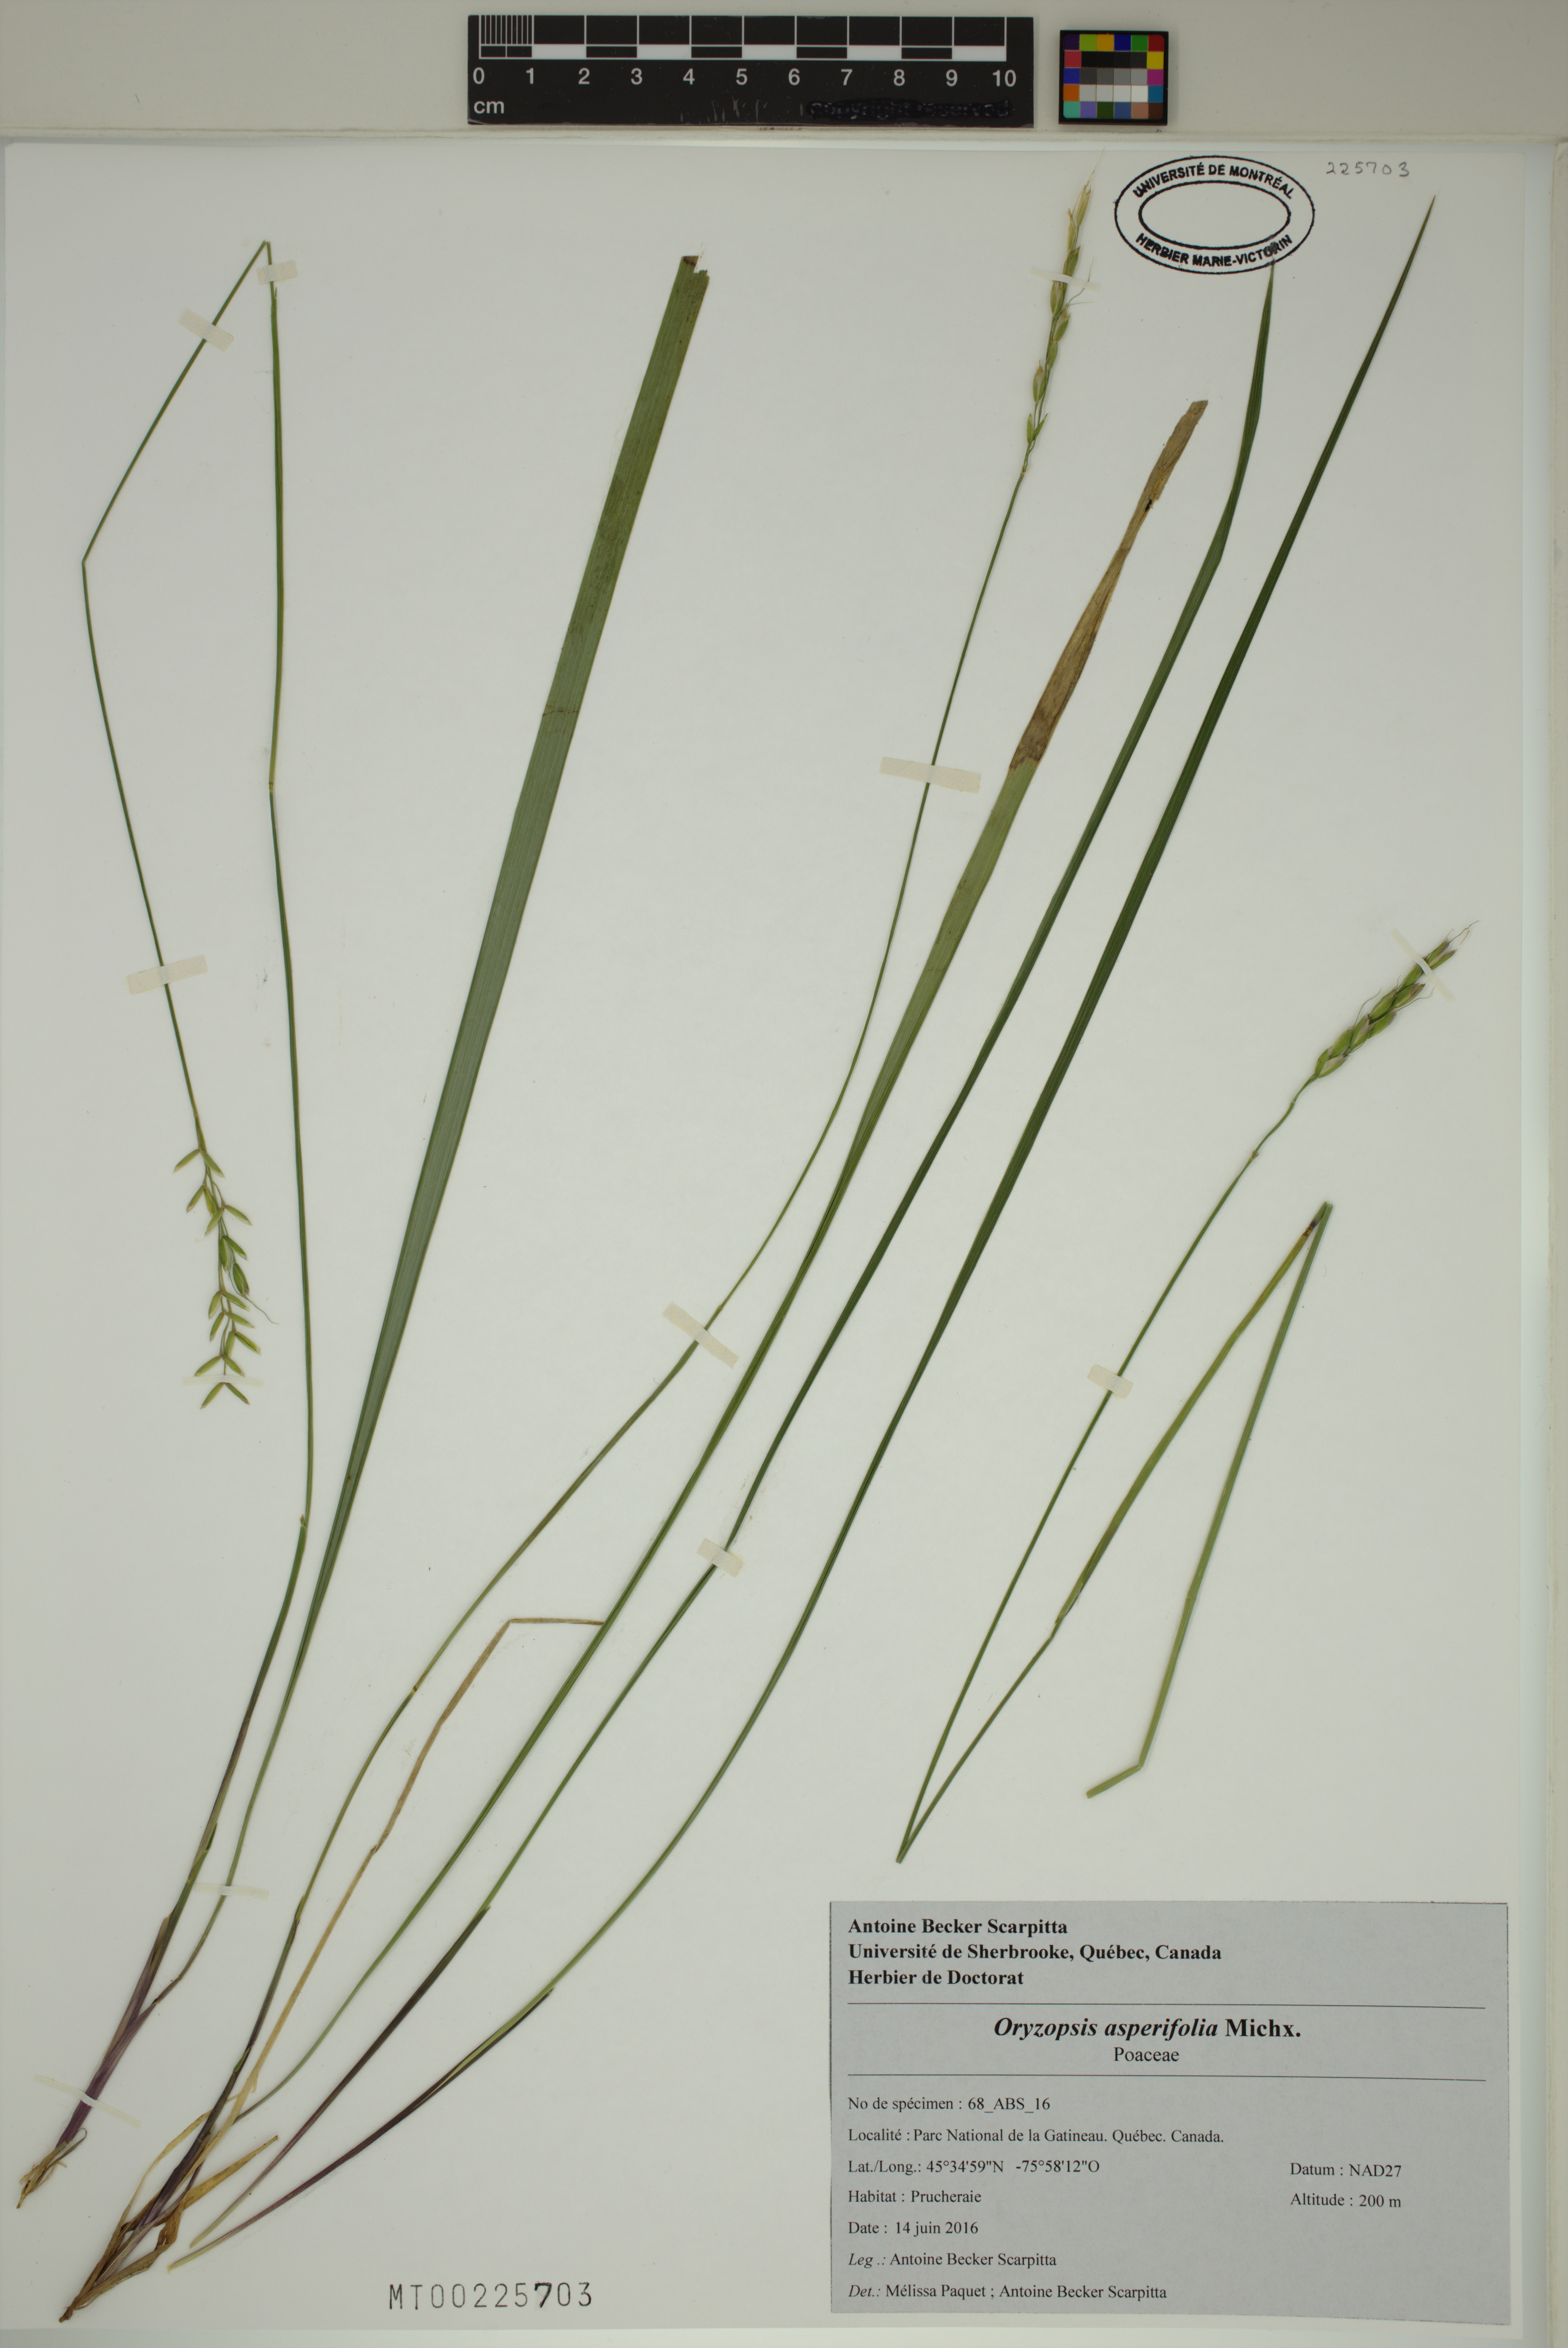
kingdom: Plantae
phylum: Tracheophyta
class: Liliopsida
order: Poales
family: Poaceae
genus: Oryzopsis
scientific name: Oryzopsis asperifolia
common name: Rough-leaved mountain rice
